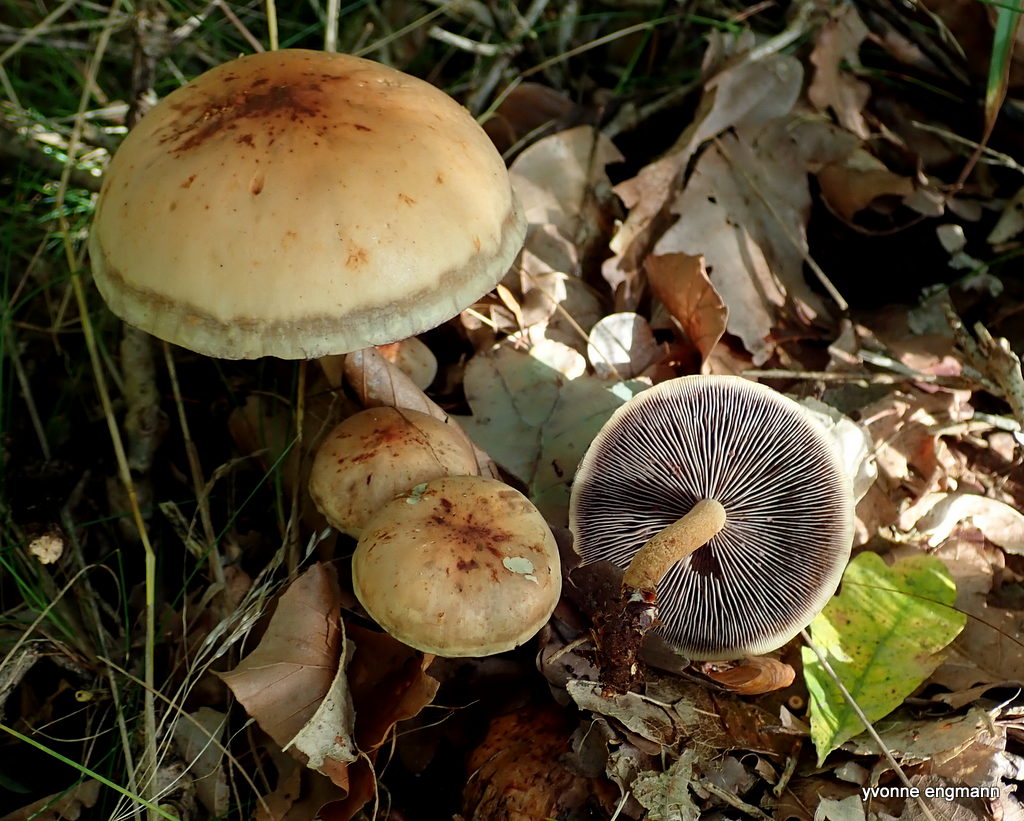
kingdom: Fungi
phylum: Basidiomycota
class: Agaricomycetes
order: Agaricales
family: Strophariaceae
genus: Hypholoma
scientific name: Hypholoma capnoides
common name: gran-svovlhat
